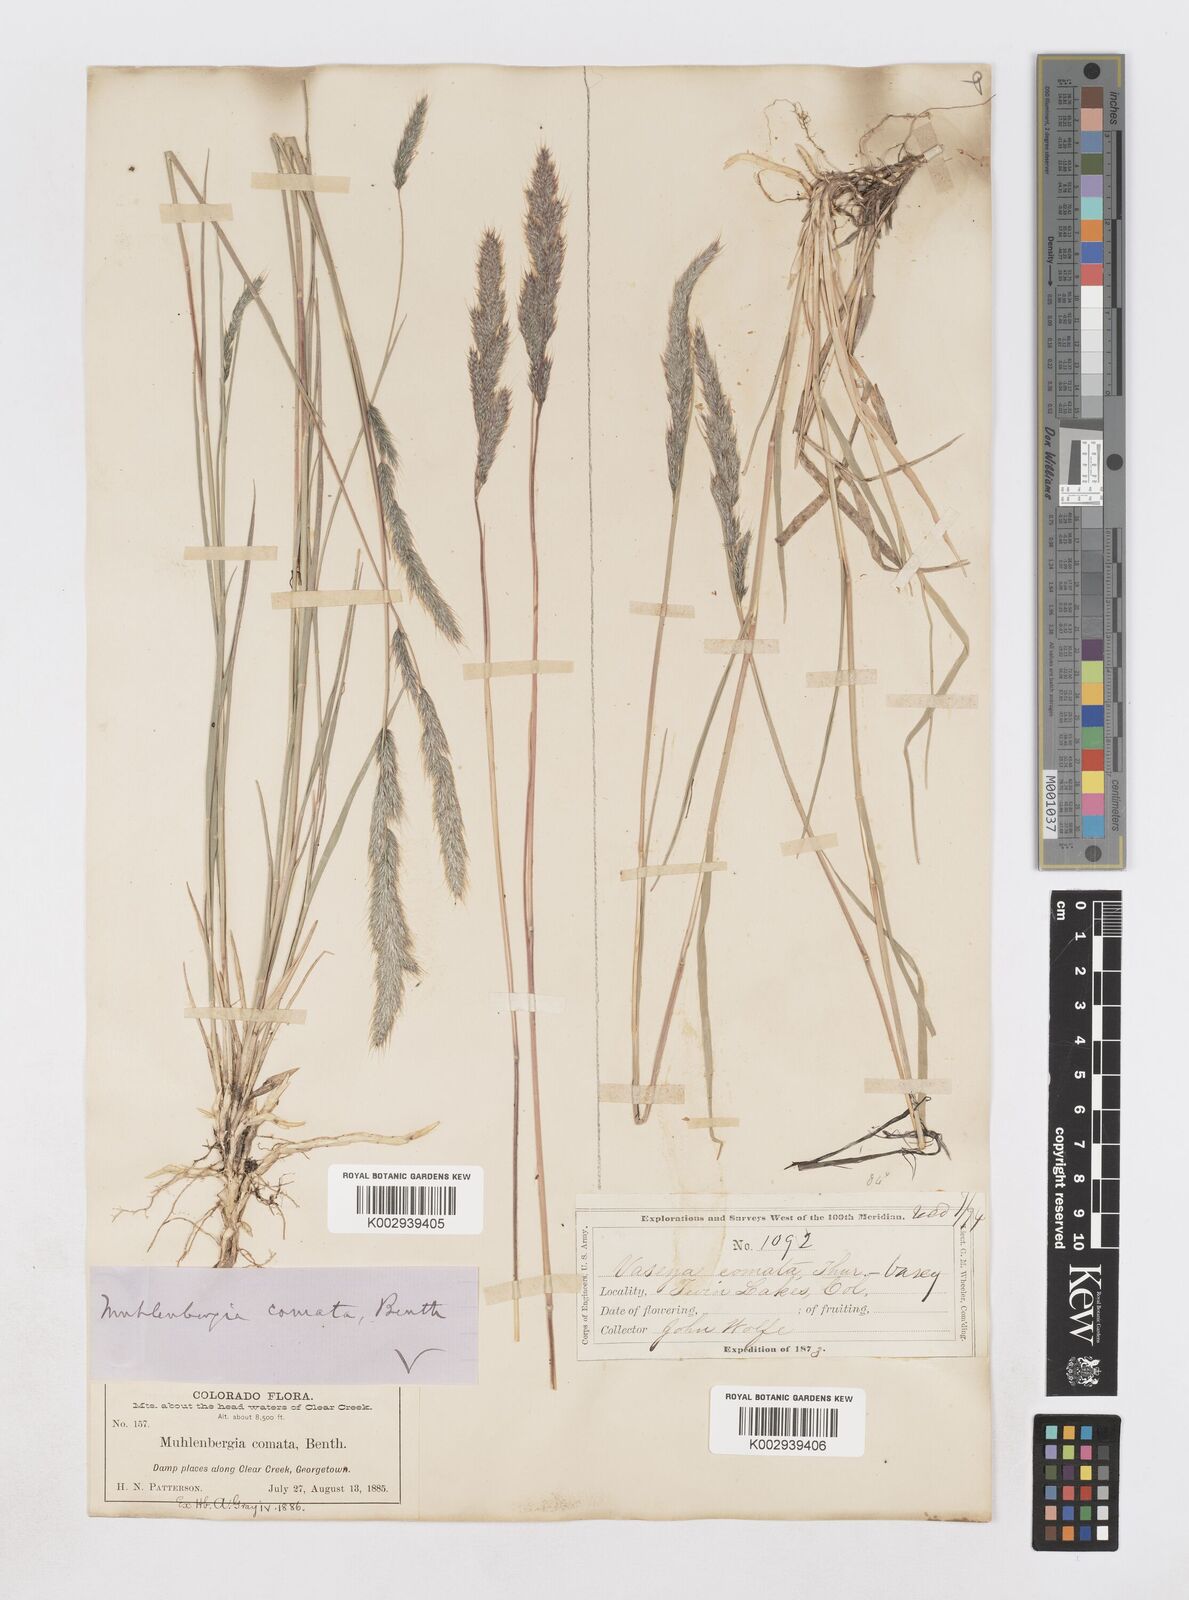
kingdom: Plantae
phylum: Tracheophyta
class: Liliopsida
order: Poales
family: Poaceae
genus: Muhlenbergia
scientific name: Muhlenbergia andina
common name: Foxtail muhly
